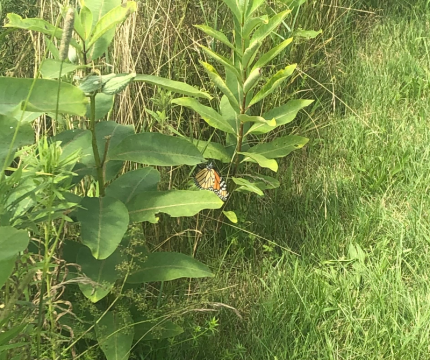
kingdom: Animalia
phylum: Arthropoda
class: Insecta
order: Lepidoptera
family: Nymphalidae
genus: Danaus
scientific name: Danaus plexippus
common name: Monarch
